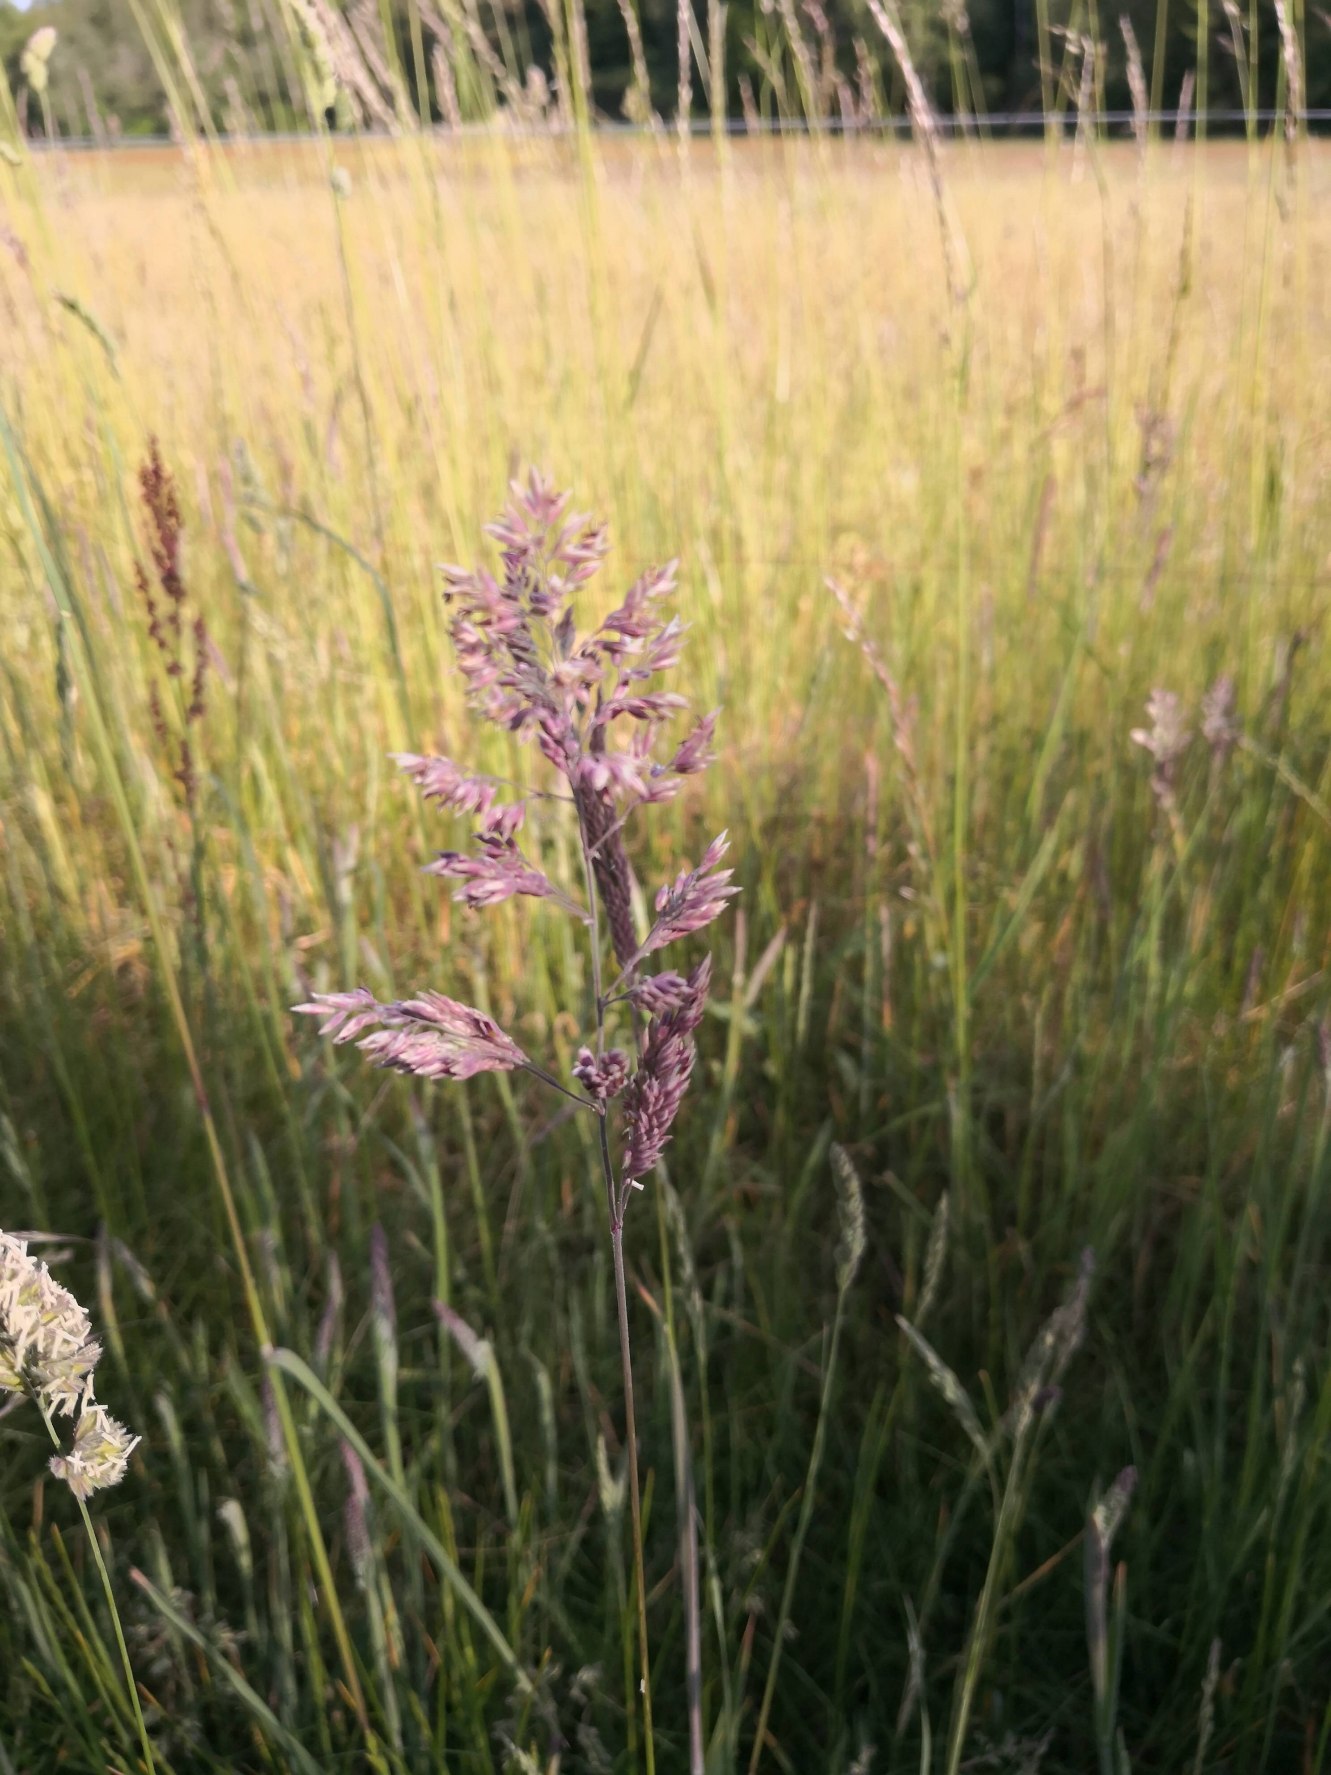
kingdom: Plantae
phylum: Tracheophyta
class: Liliopsida
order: Poales
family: Poaceae
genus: Holcus
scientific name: Holcus lanatus
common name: Fløjlsgræs
